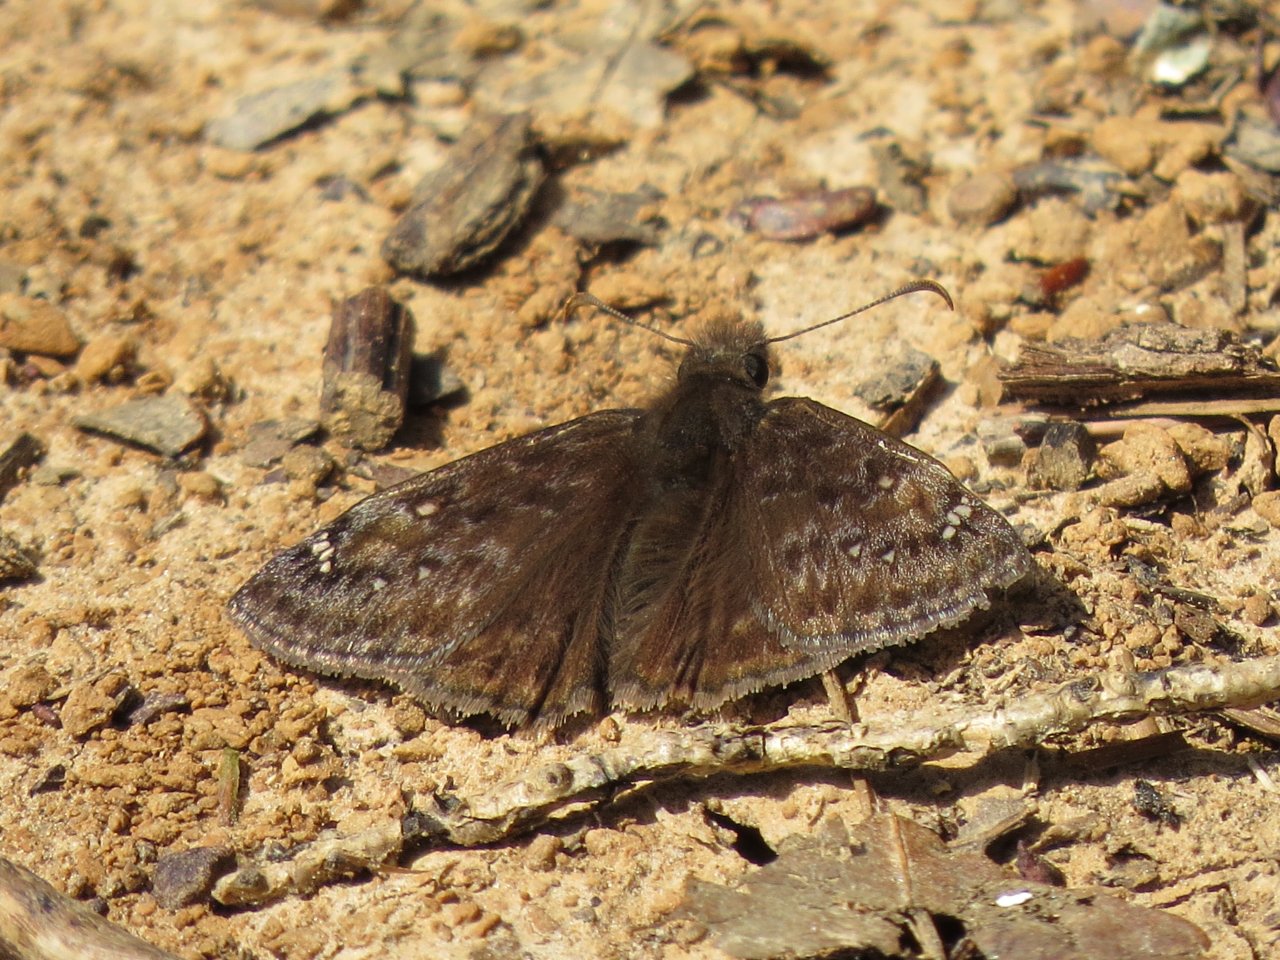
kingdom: Animalia
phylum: Arthropoda
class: Insecta
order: Lepidoptera
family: Hesperiidae
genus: Gesta
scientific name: Gesta
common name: Juvenal's Duskywing
